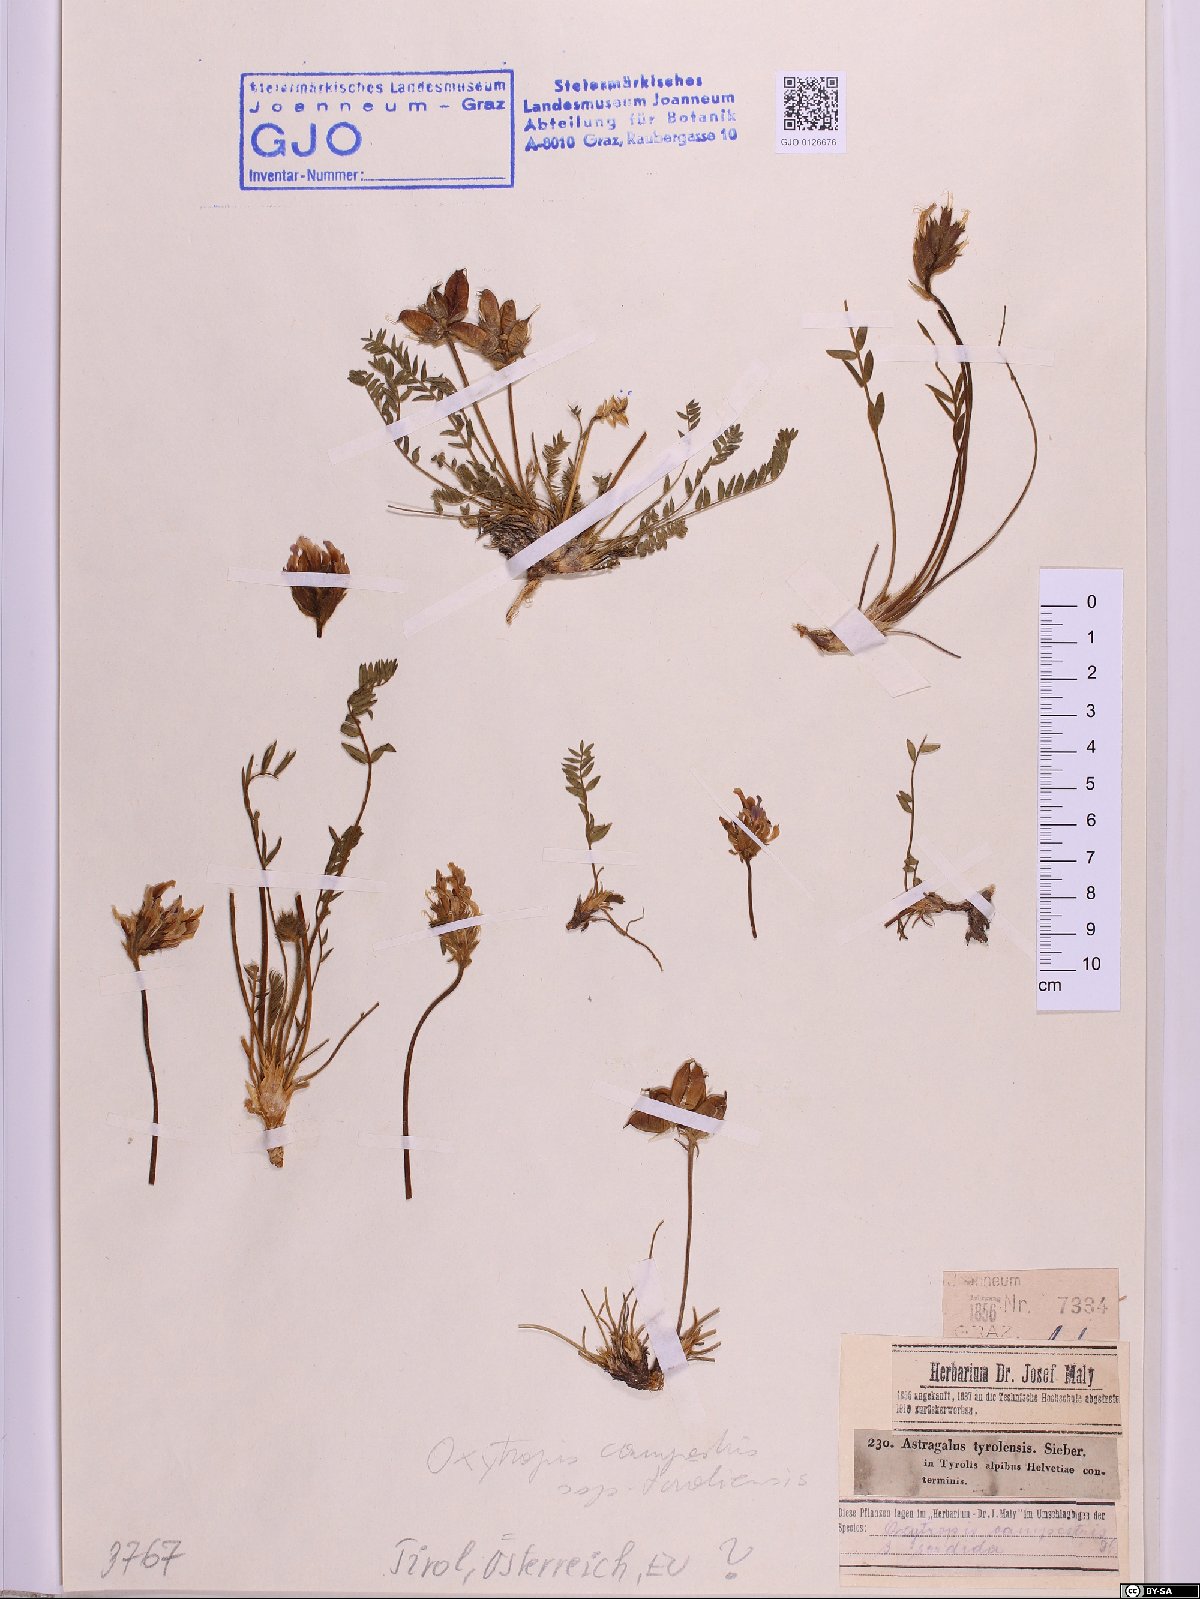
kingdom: Plantae
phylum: Tracheophyta
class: Magnoliopsida
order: Fabales
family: Fabaceae
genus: Astragalus
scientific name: Astragalus tyrolensis
